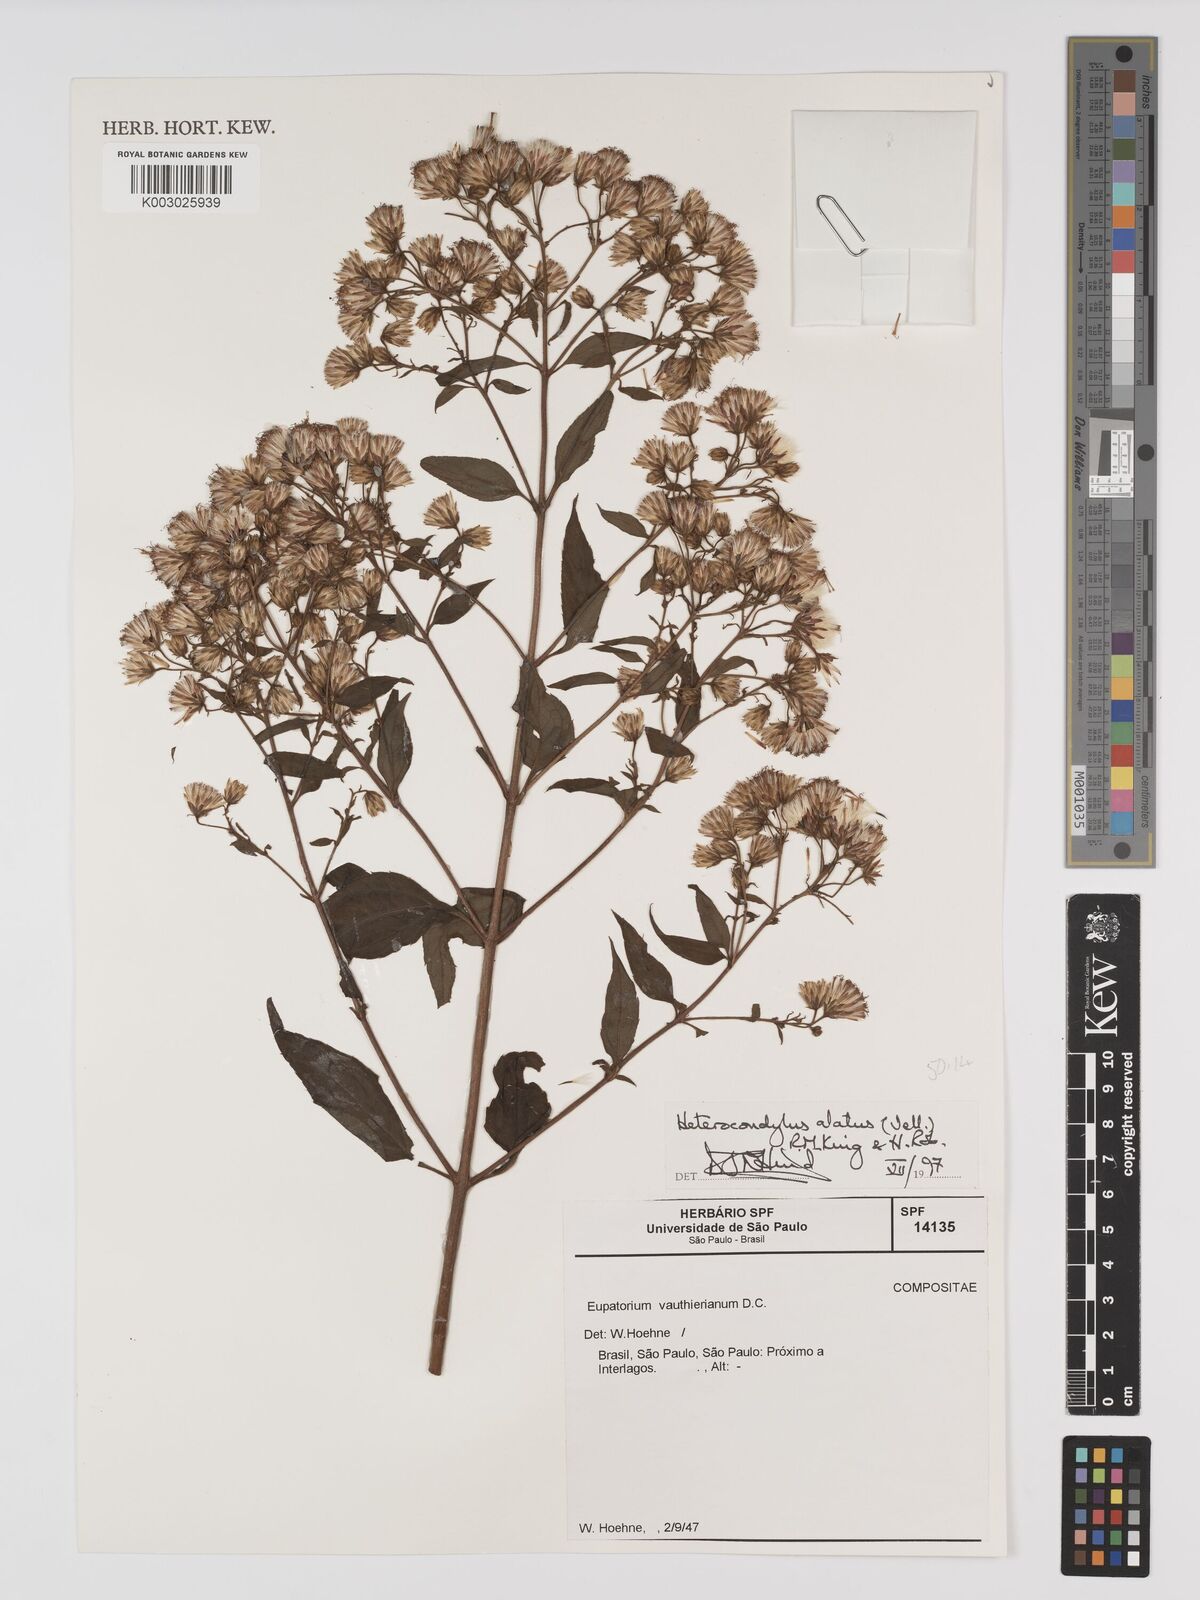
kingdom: Plantae
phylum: Tracheophyta
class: Magnoliopsida
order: Asterales
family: Asteraceae
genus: Heterocondylus
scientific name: Heterocondylus alatus
